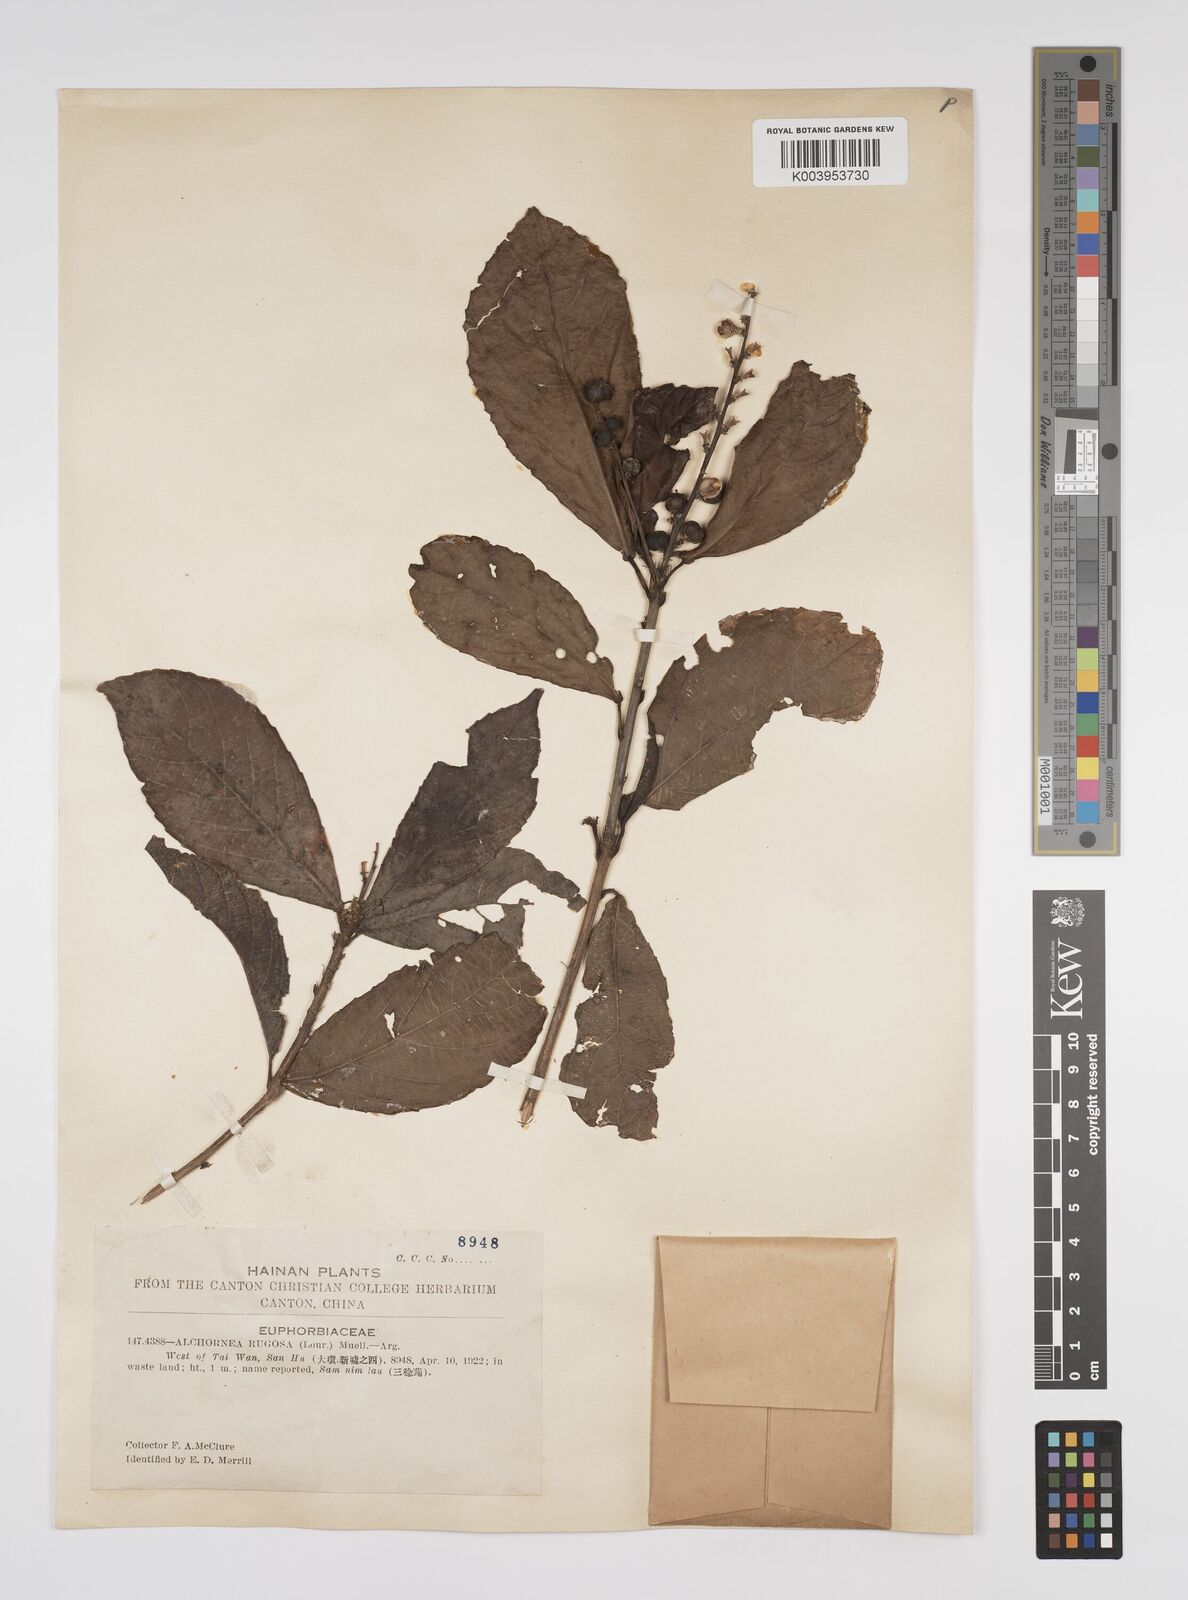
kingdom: Plantae
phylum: Tracheophyta
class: Magnoliopsida
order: Malpighiales
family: Euphorbiaceae
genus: Alchornea
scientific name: Alchornea rugosa
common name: Alchorntree
